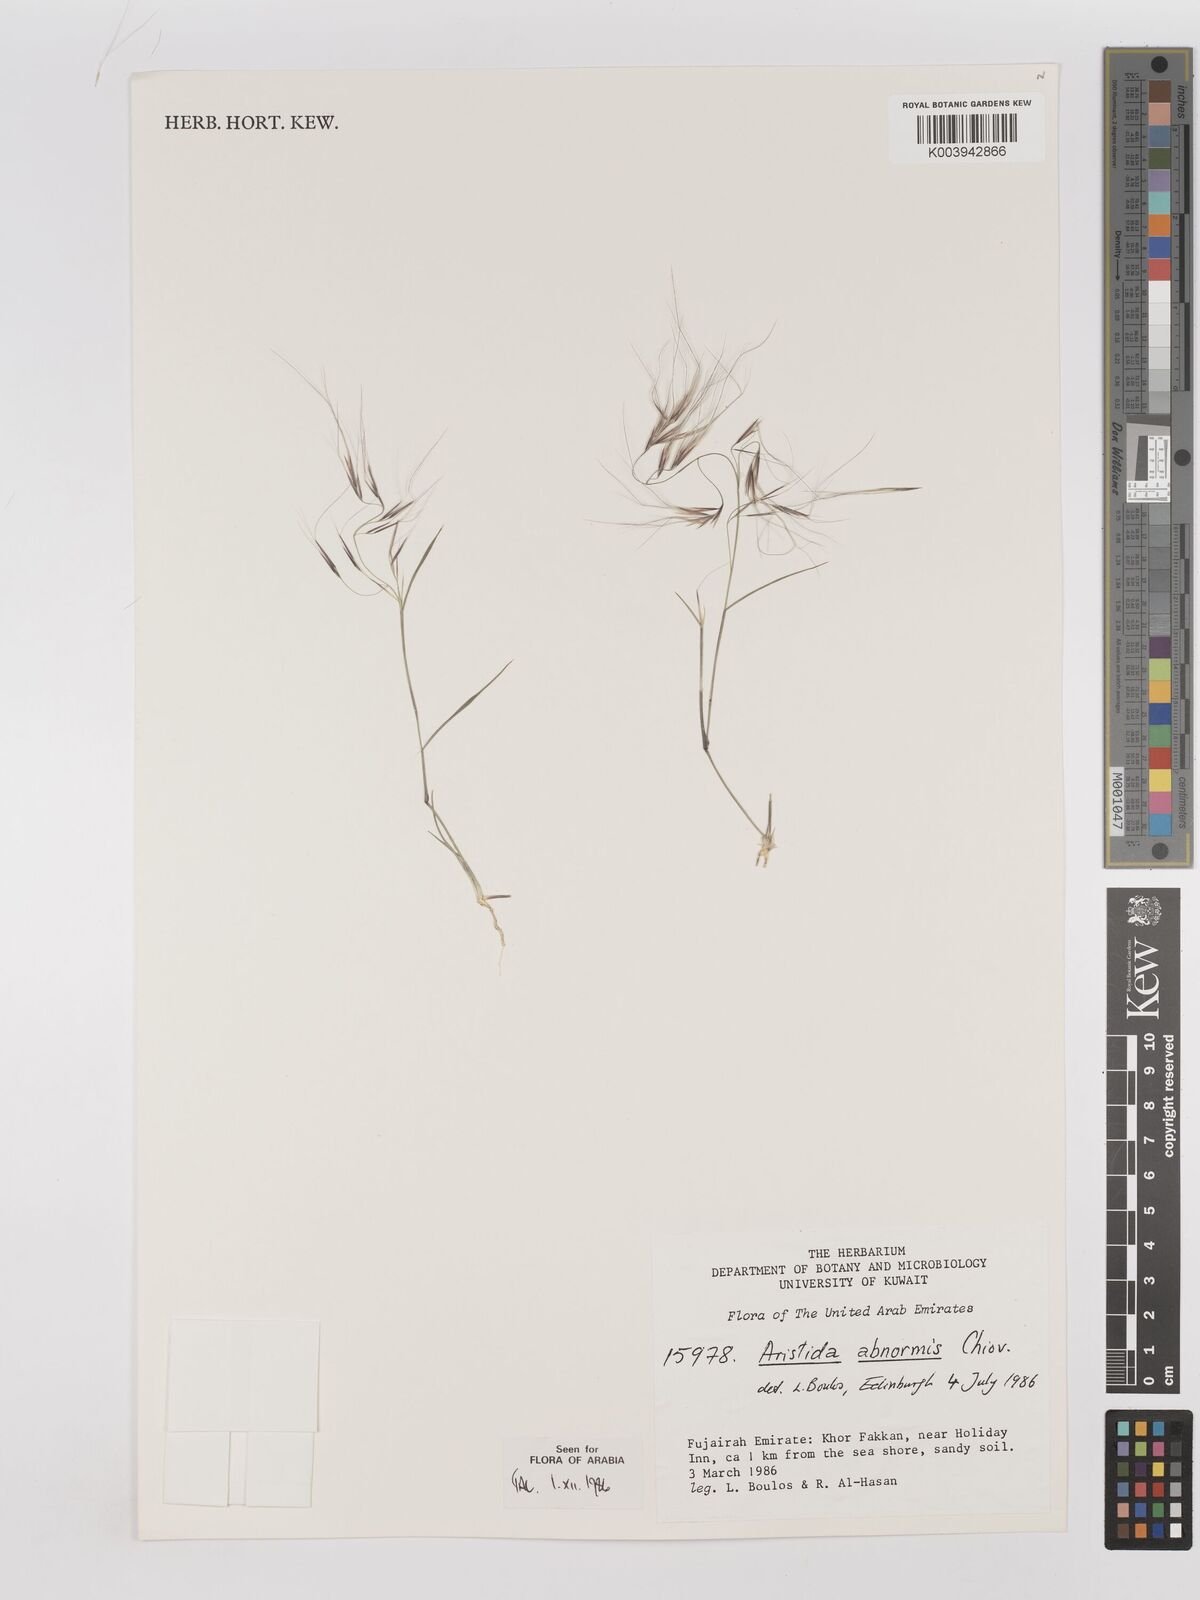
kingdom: Plantae
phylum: Tracheophyta
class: Liliopsida
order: Poales
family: Poaceae
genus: Aristida
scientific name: Aristida abnormis
